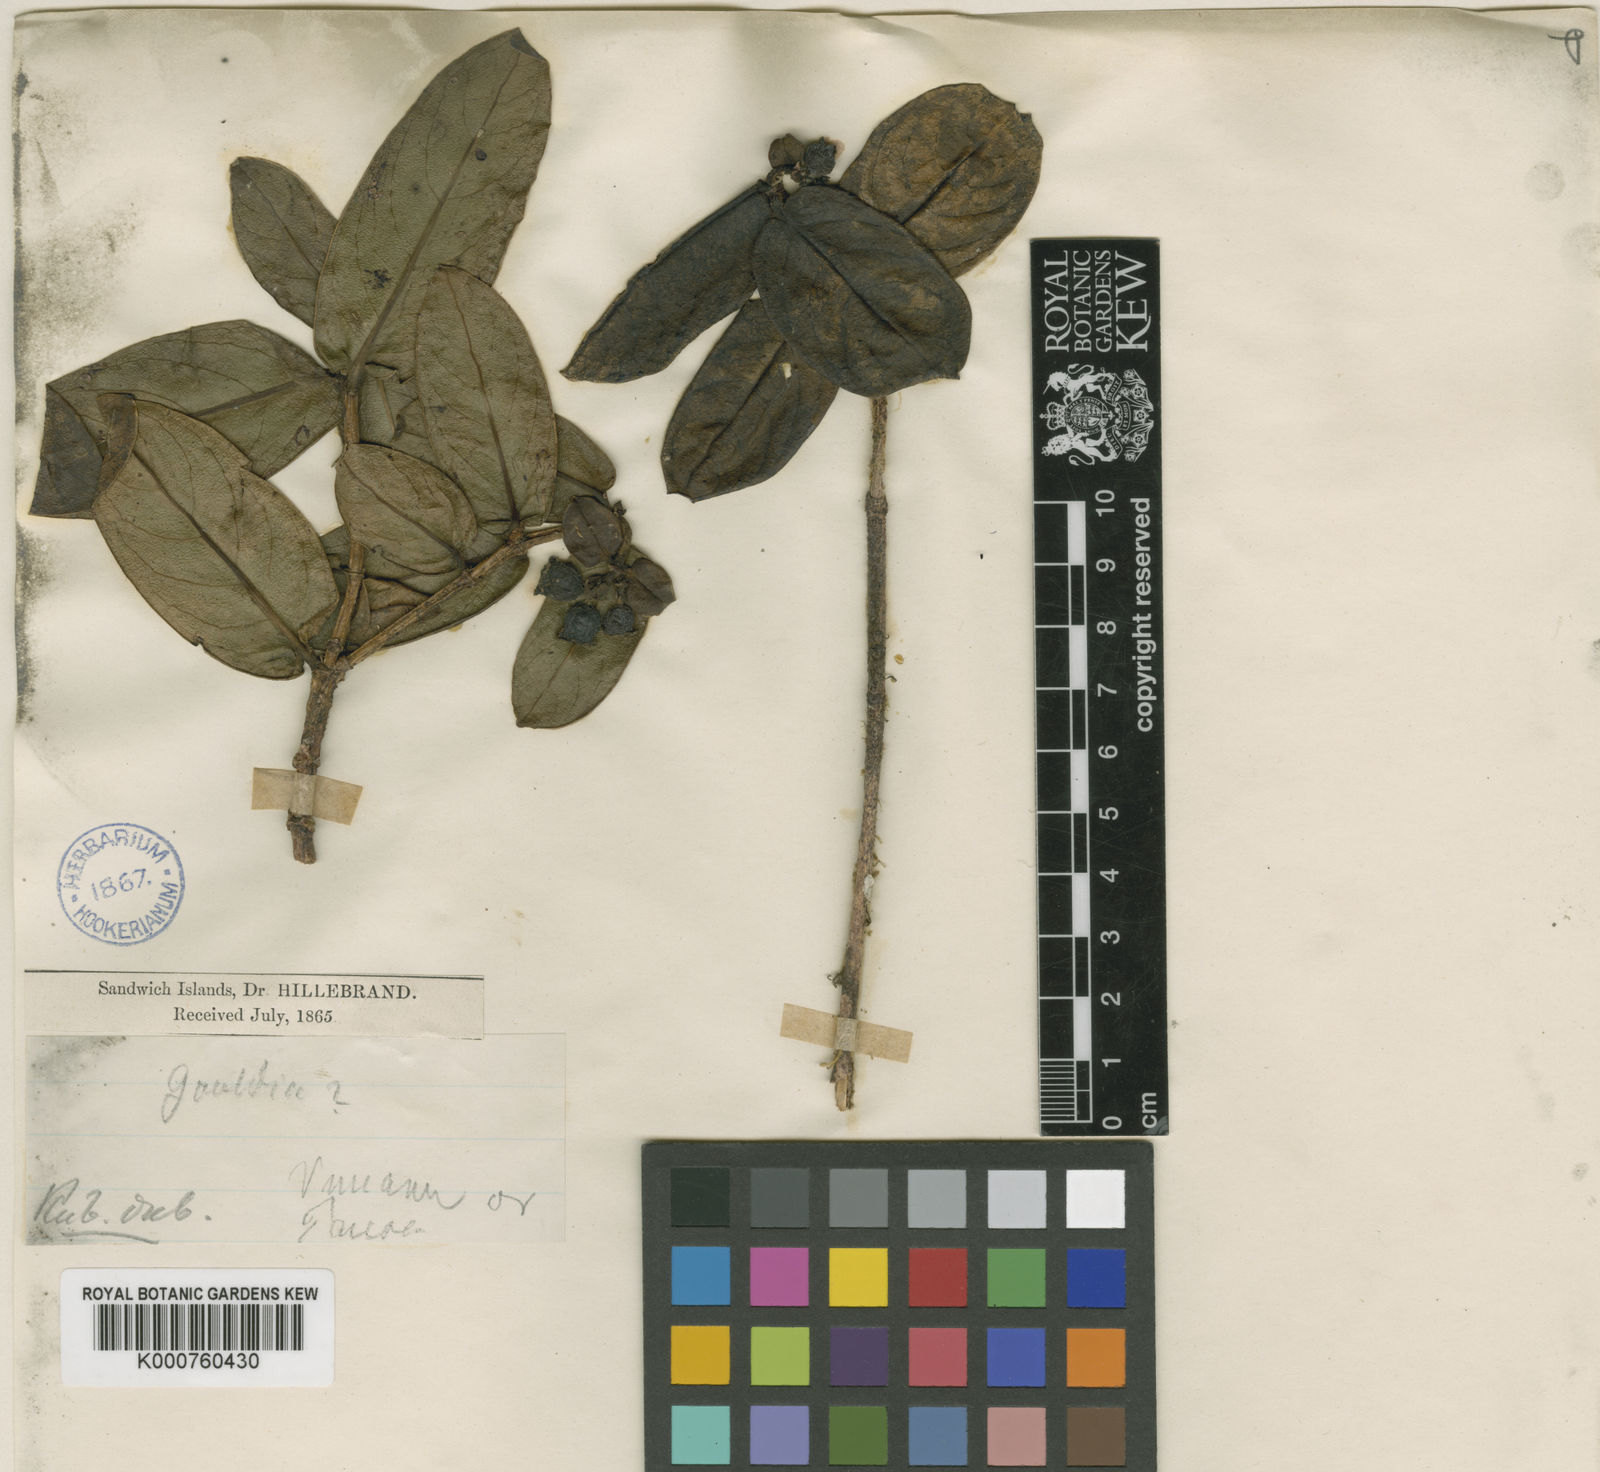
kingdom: Plantae
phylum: Tracheophyta
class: Magnoliopsida
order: Gentianales
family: Rubiaceae
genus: Kadua
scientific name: Kadua affinis
